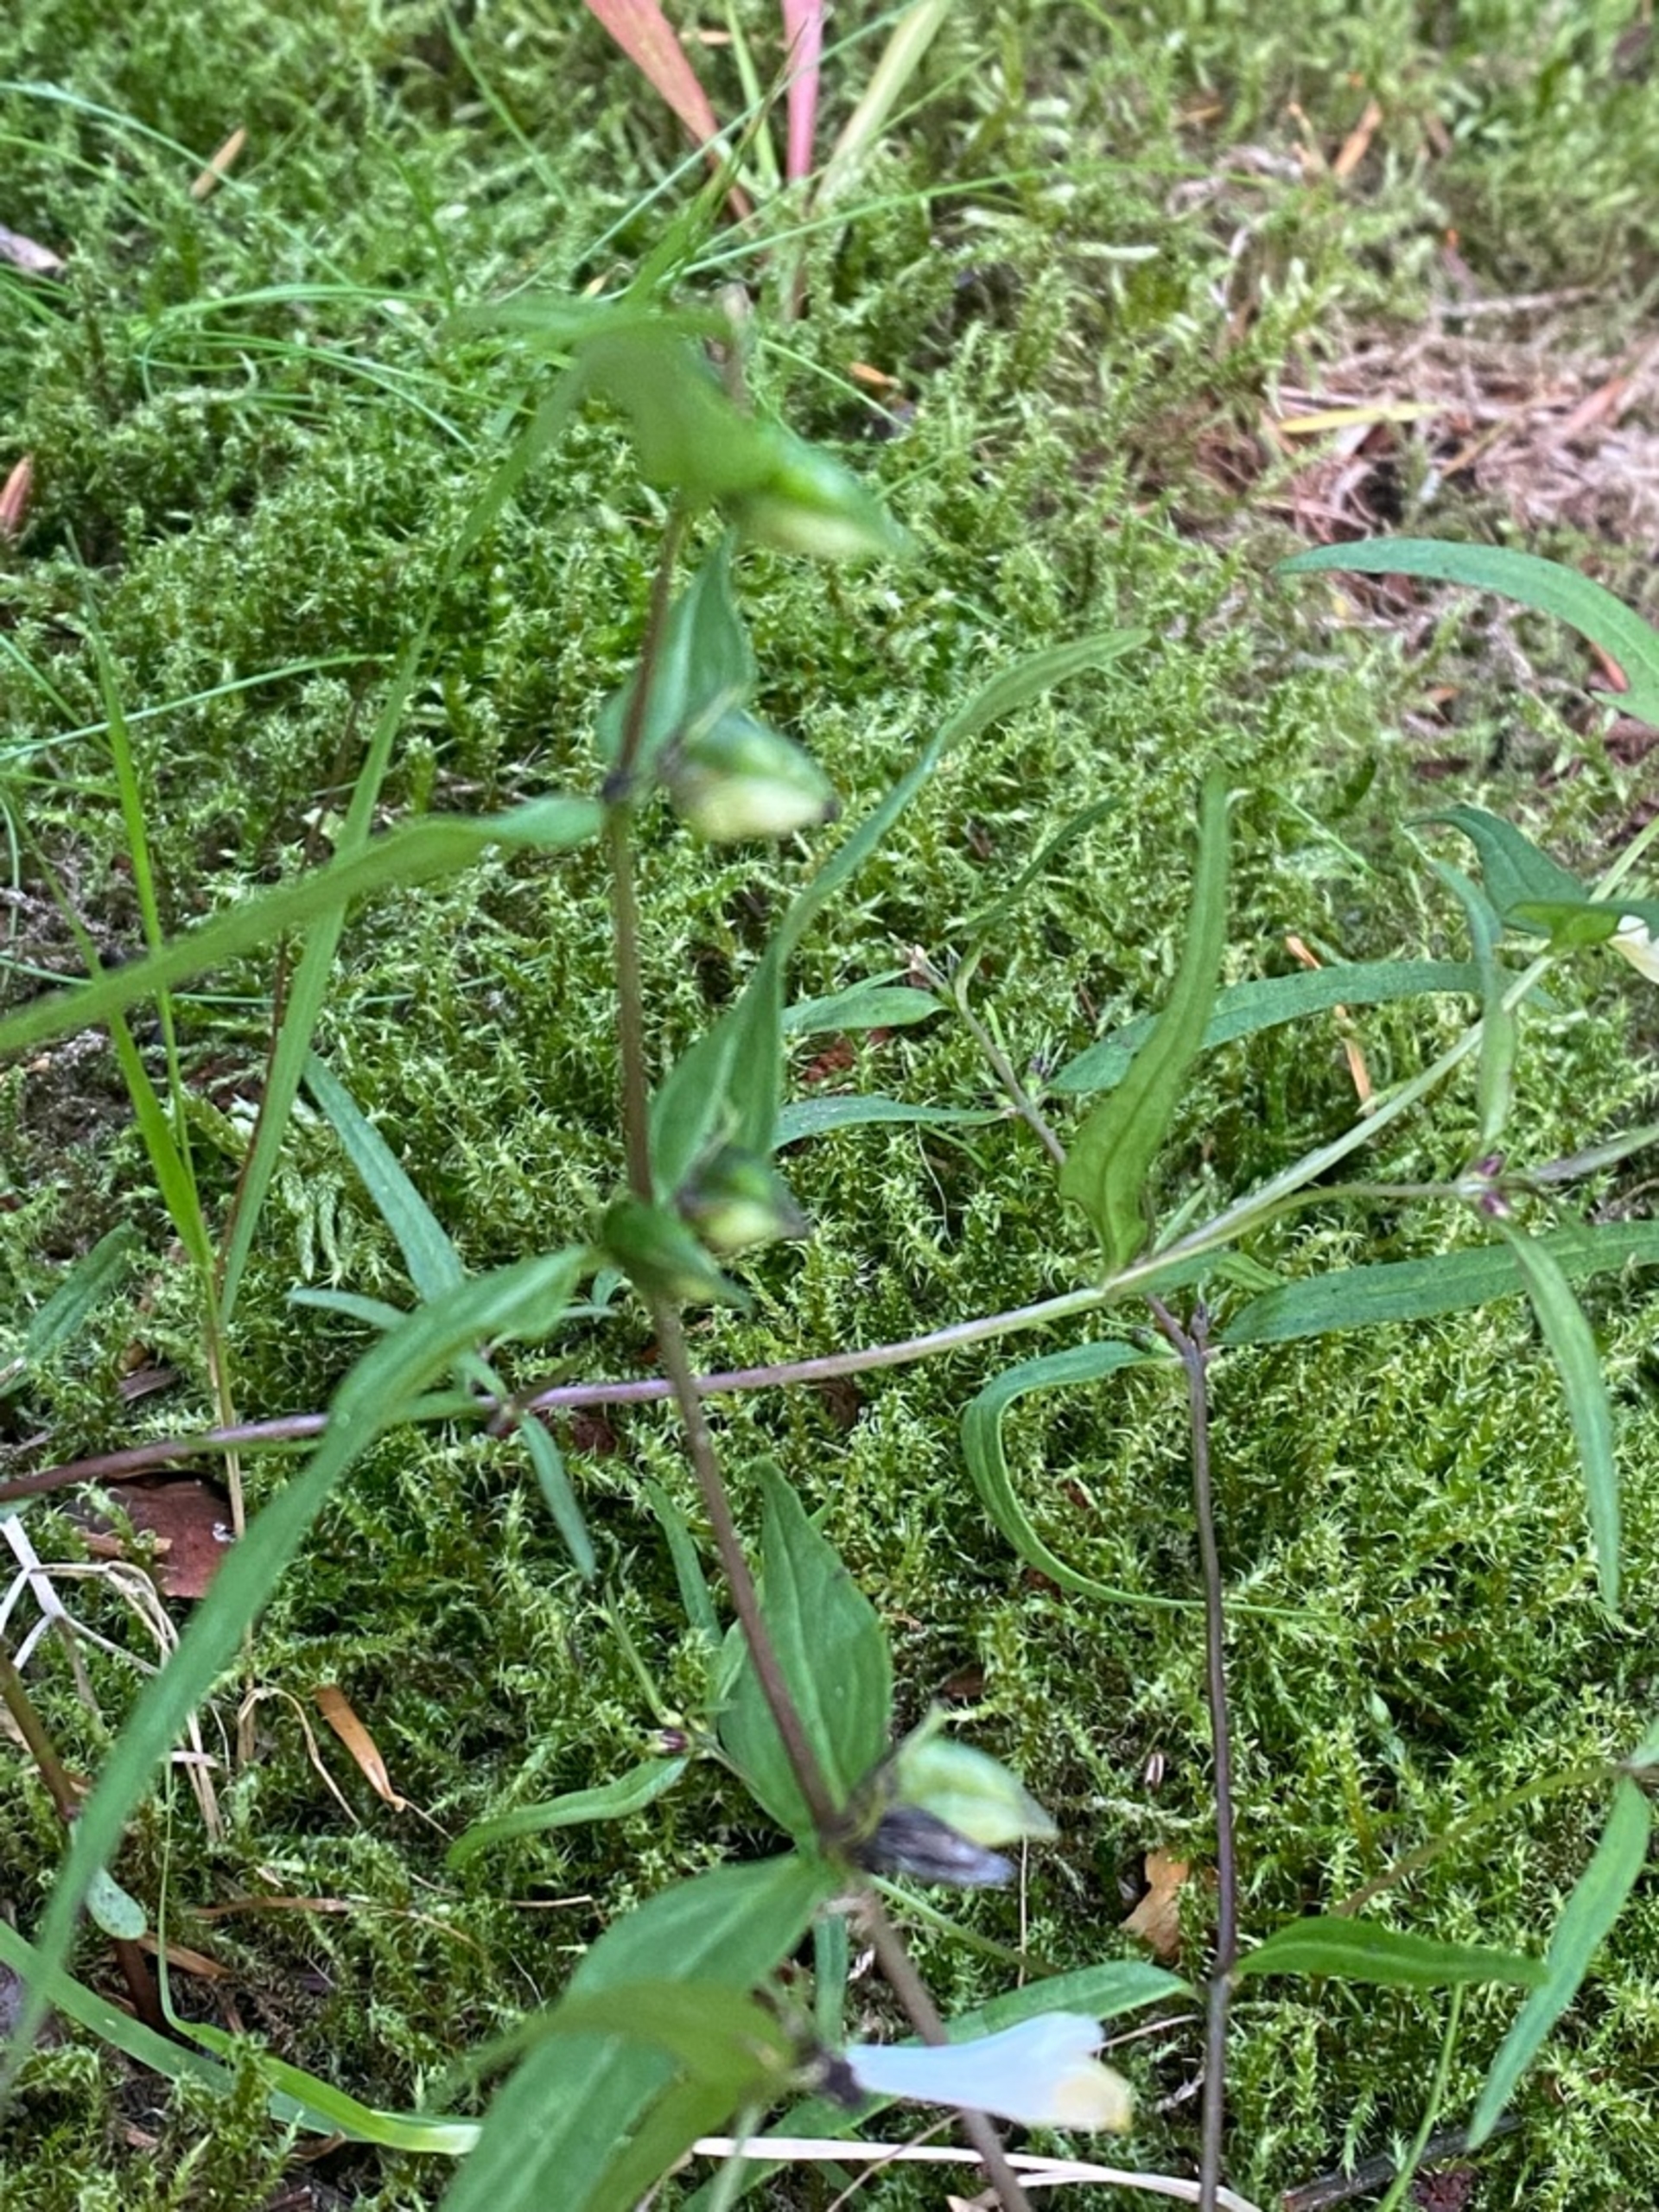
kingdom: Plantae
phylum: Tracheophyta
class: Magnoliopsida
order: Lamiales
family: Orobanchaceae
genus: Melampyrum
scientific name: Melampyrum pratense
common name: Almindelig kohvede
